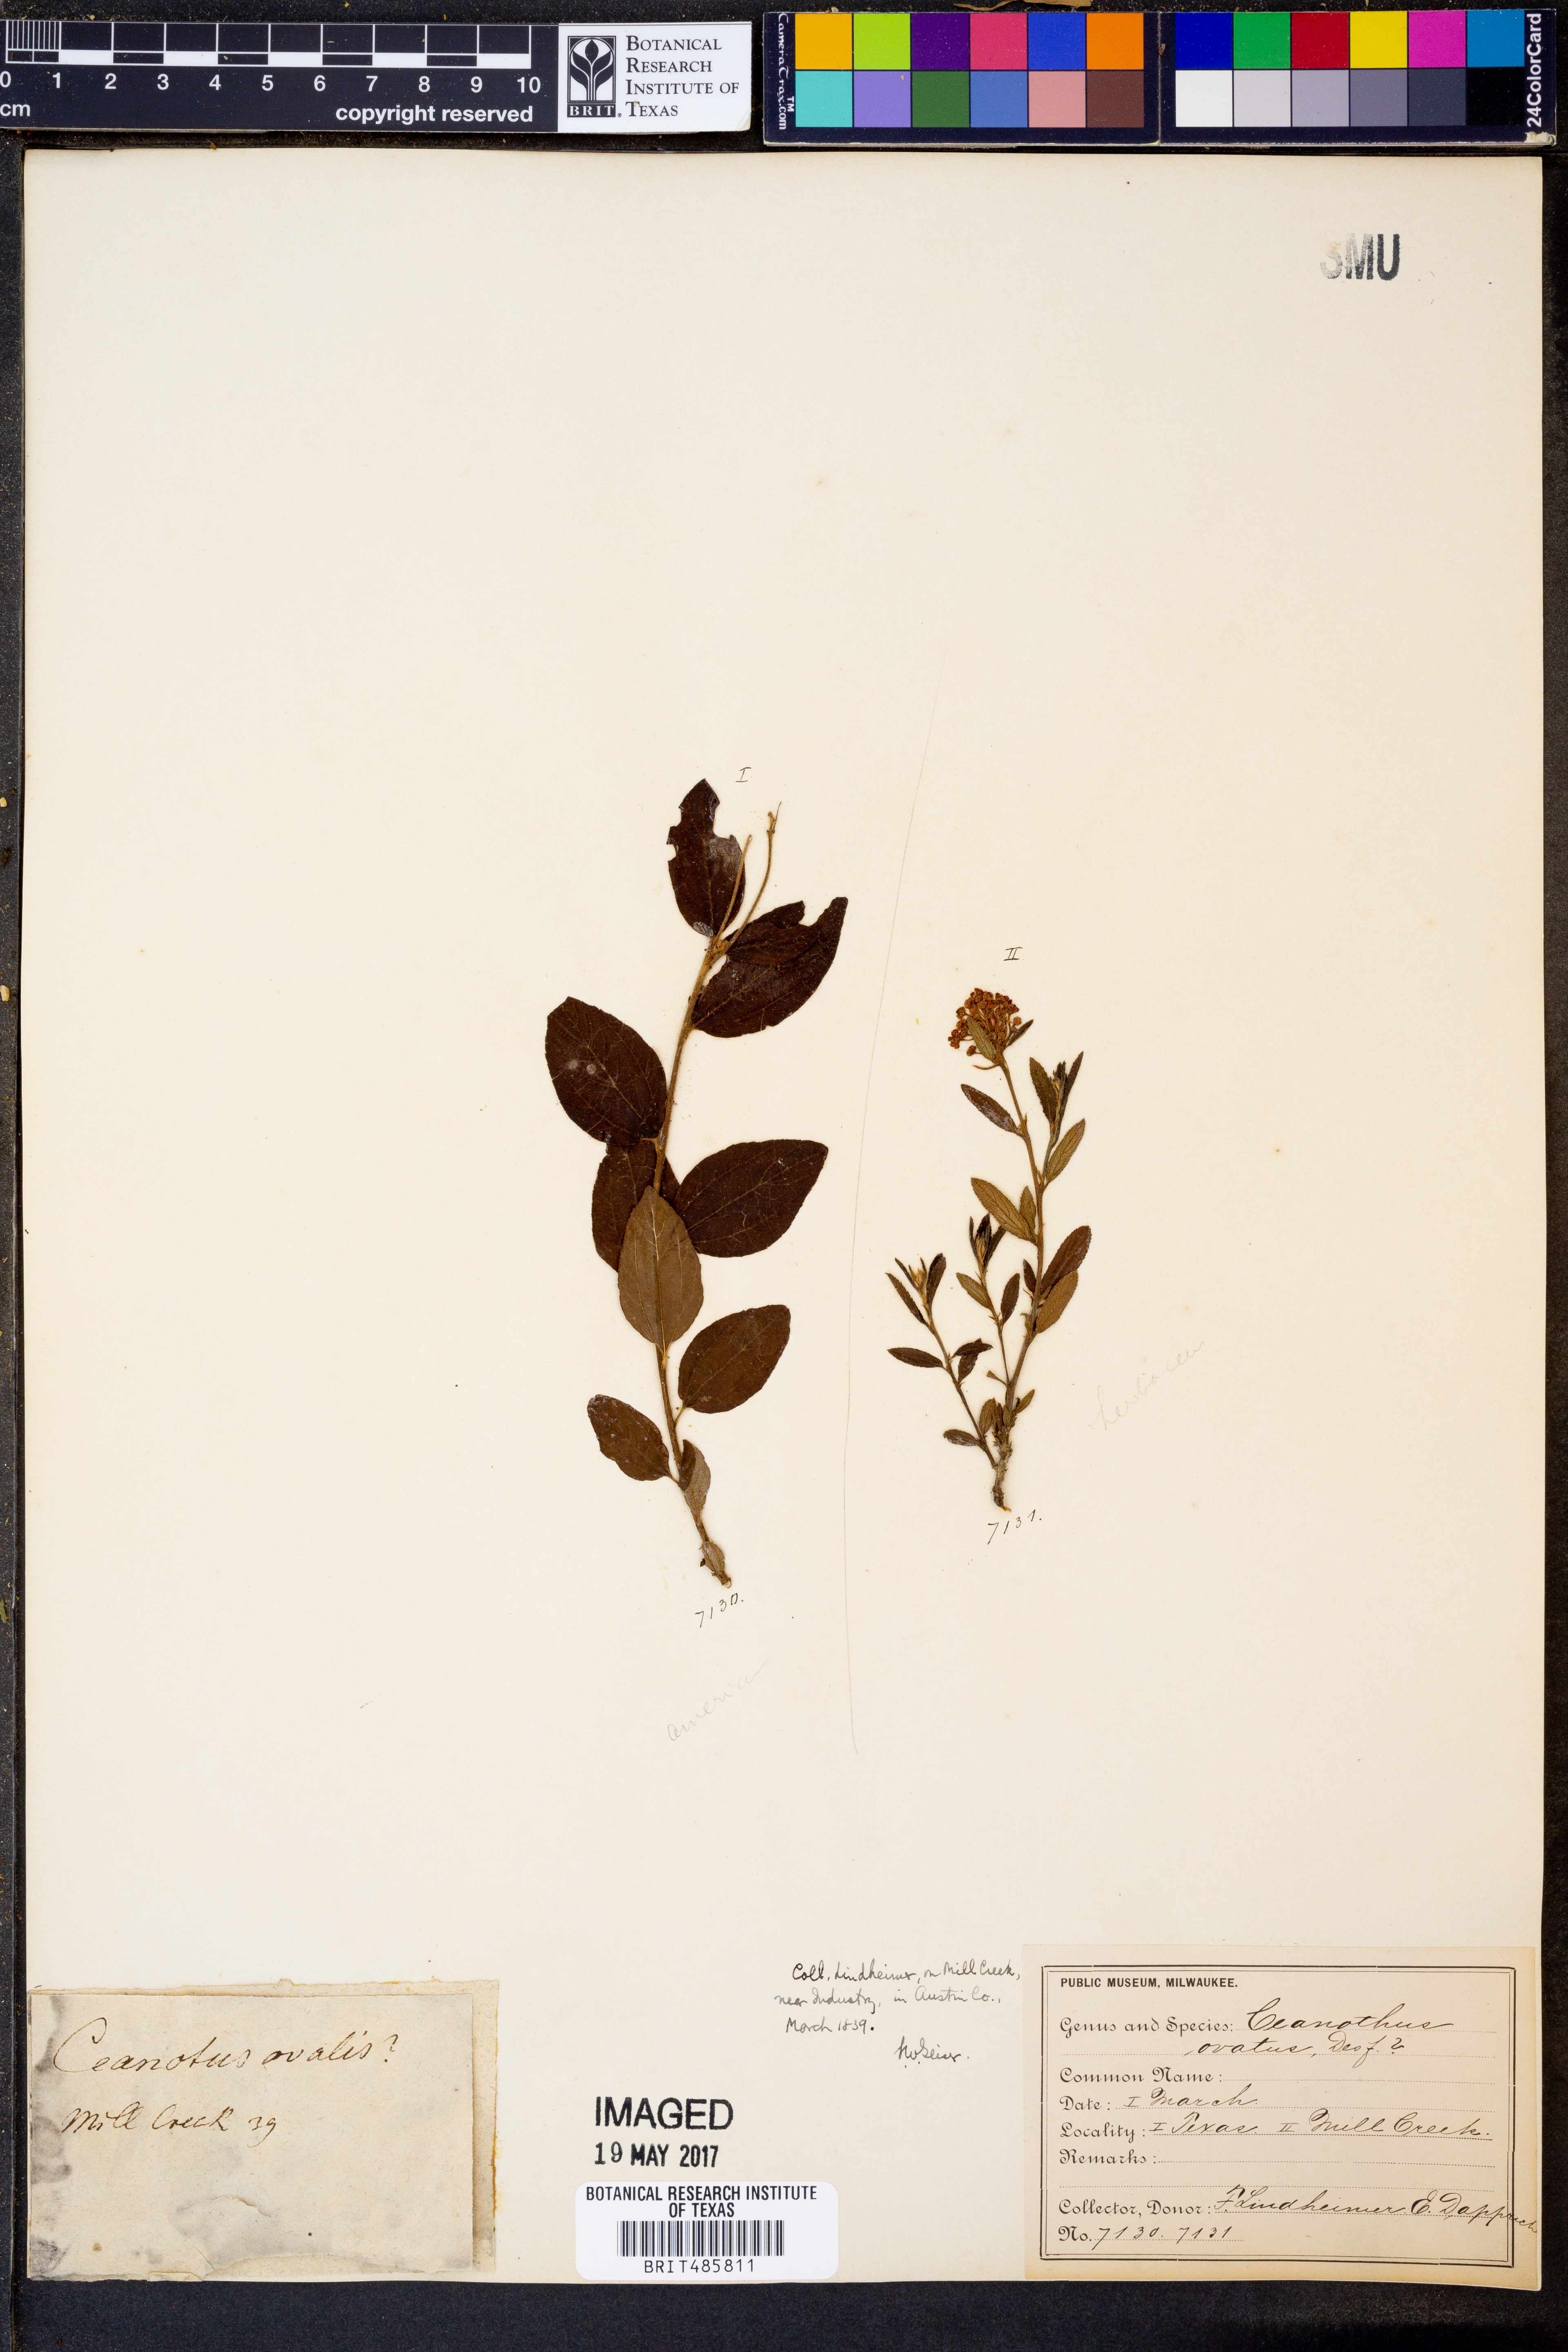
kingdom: Plantae
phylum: Tracheophyta
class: Magnoliopsida
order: Rosales
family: Rhamnaceae
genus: Ceanothus
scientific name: Ceanothus herbaceus
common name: Inland ceanothus
